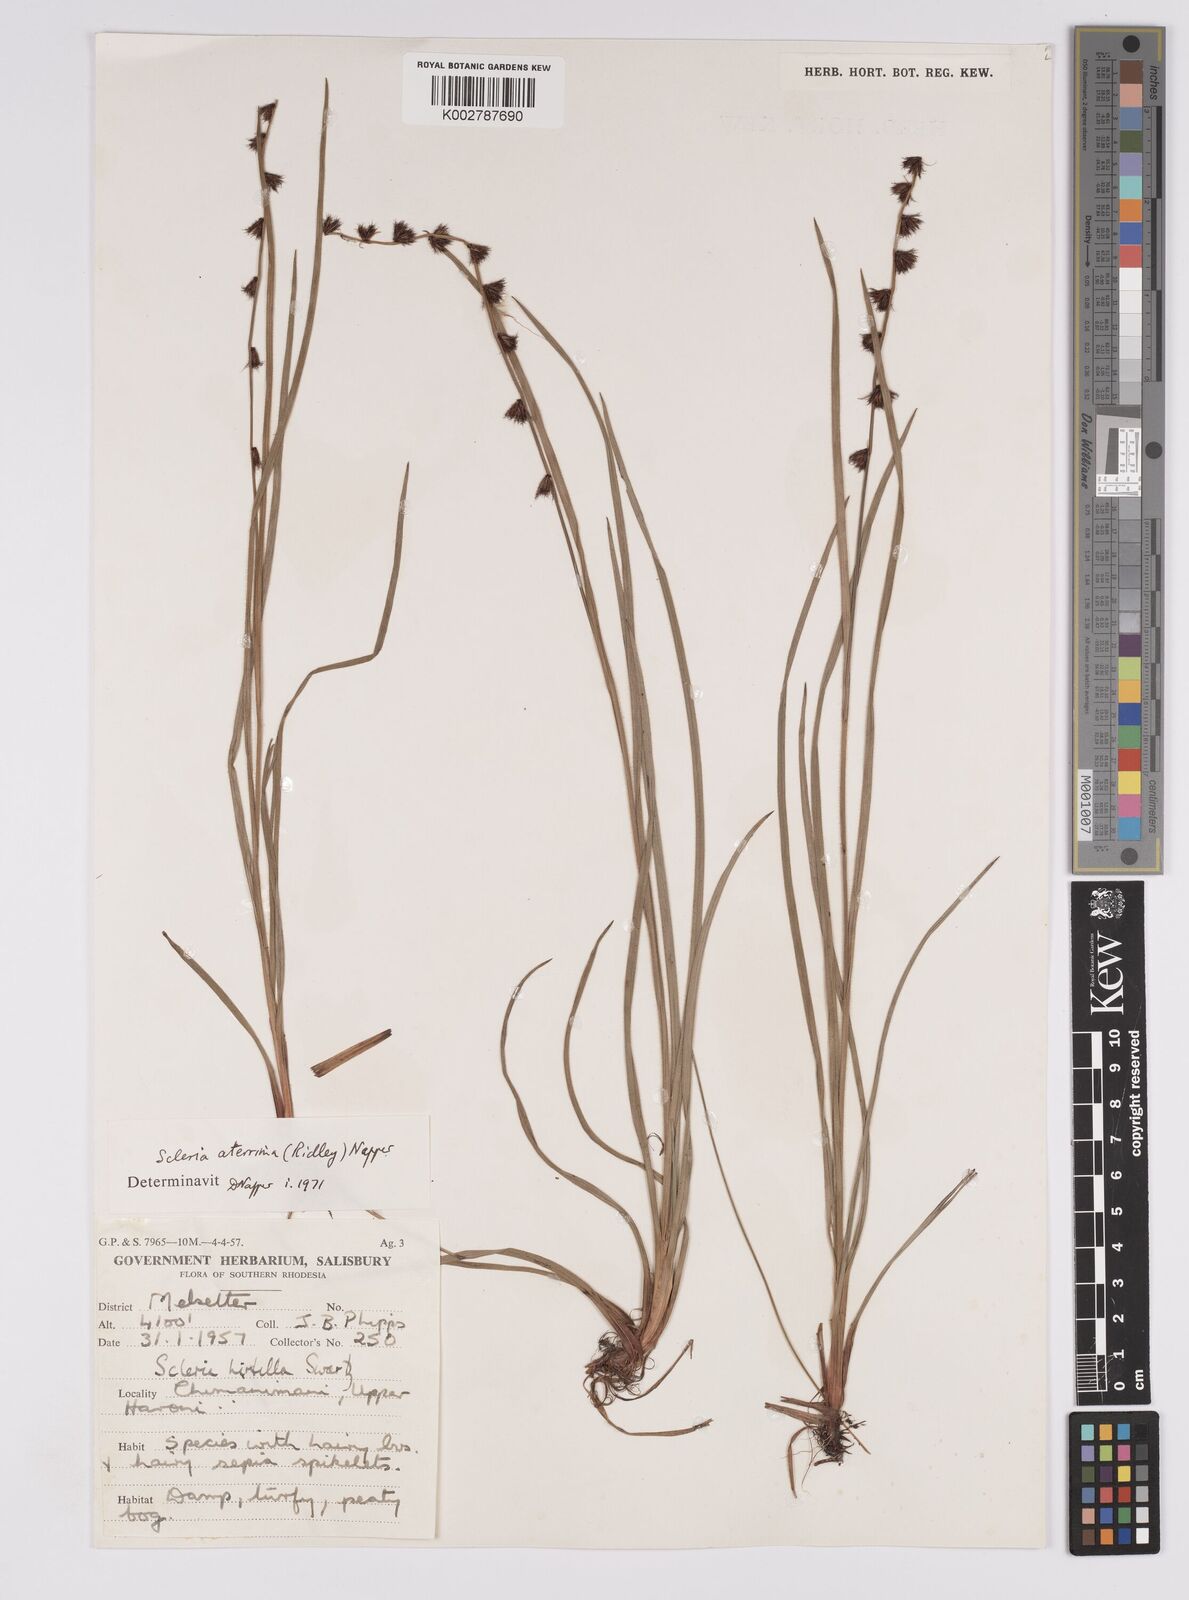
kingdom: Plantae
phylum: Tracheophyta
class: Liliopsida
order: Poales
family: Cyperaceae
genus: Scleria
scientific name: Scleria catophylla
